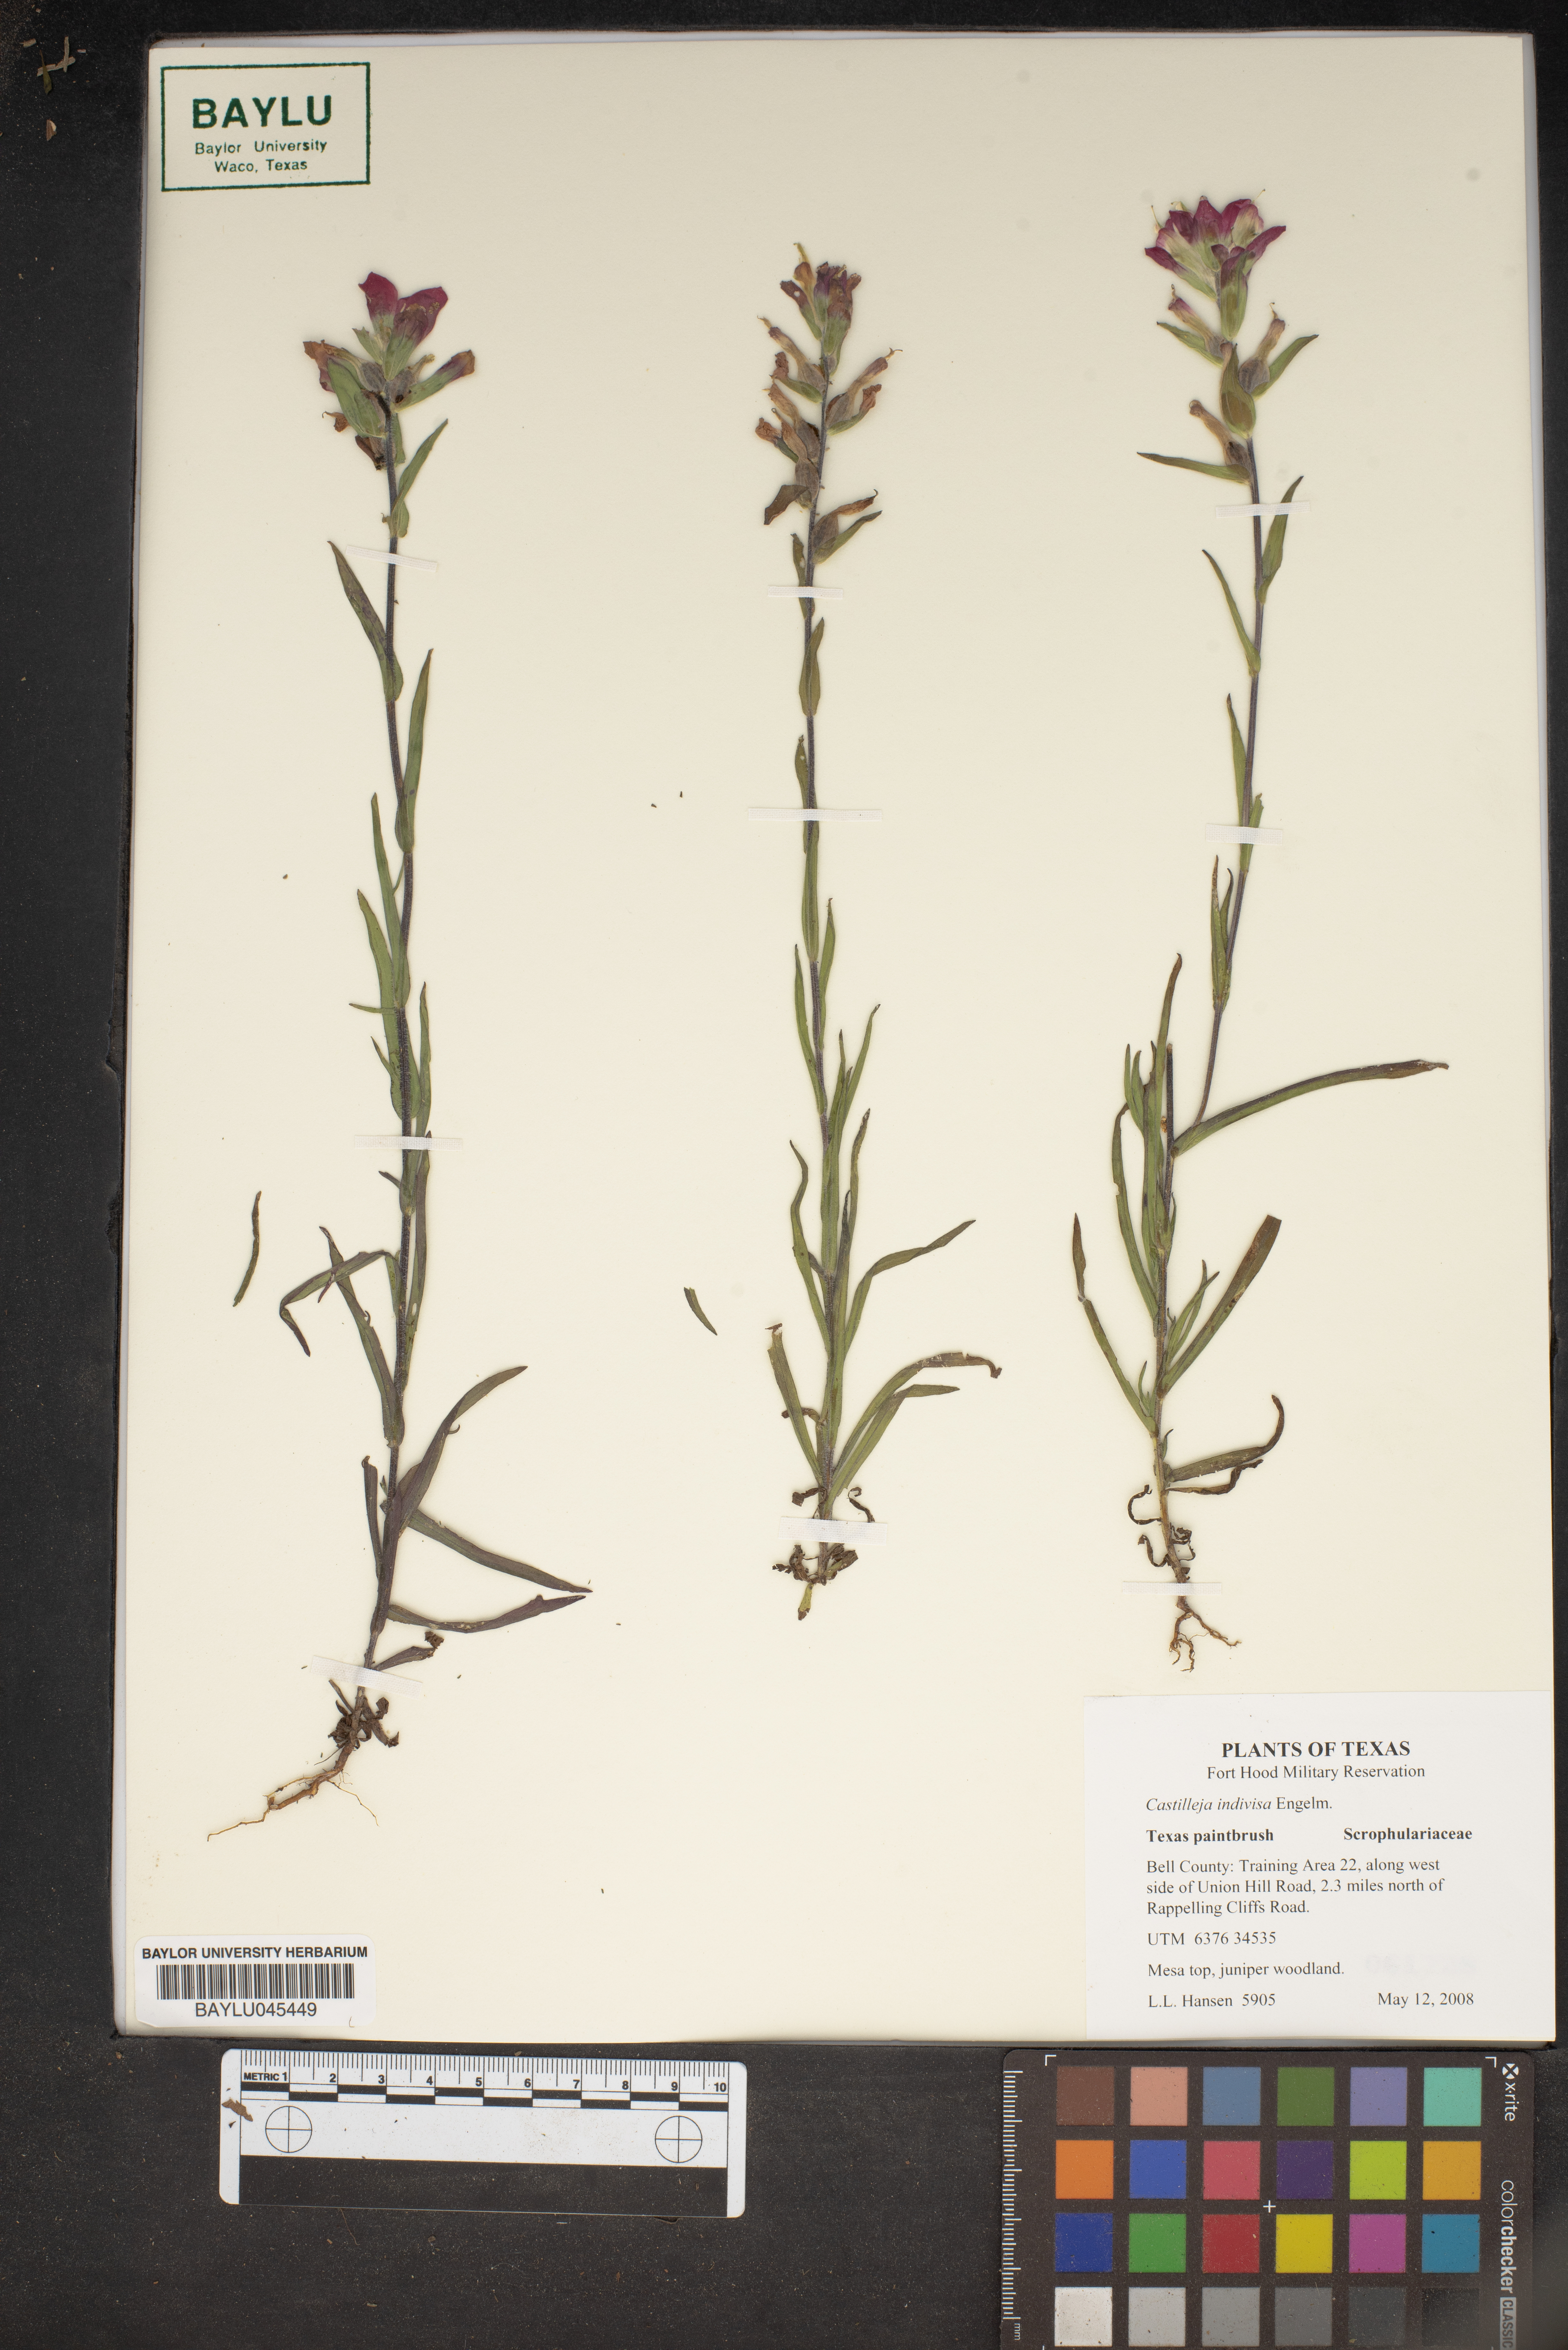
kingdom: Plantae
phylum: Tracheophyta
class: Magnoliopsida
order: Lamiales
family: Orobanchaceae
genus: Castilleja
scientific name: Castilleja indivisa
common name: Texas paintbrush
